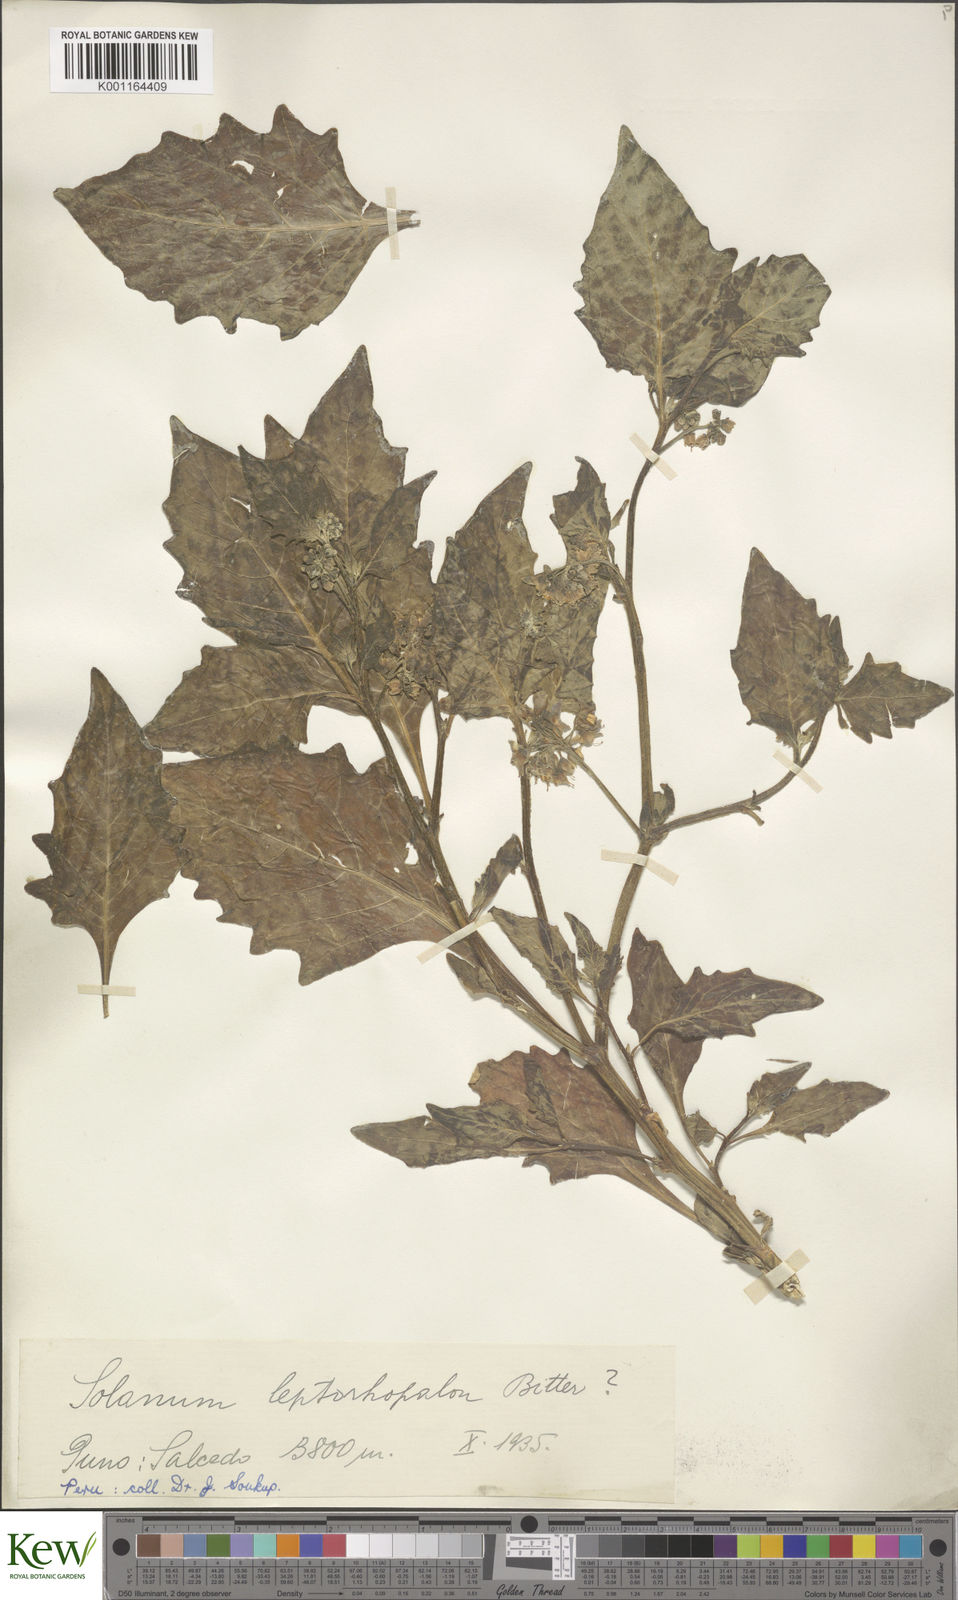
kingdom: Plantae
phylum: Tracheophyta
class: Magnoliopsida
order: Solanales
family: Solanaceae
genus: Solanum
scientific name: Solanum
